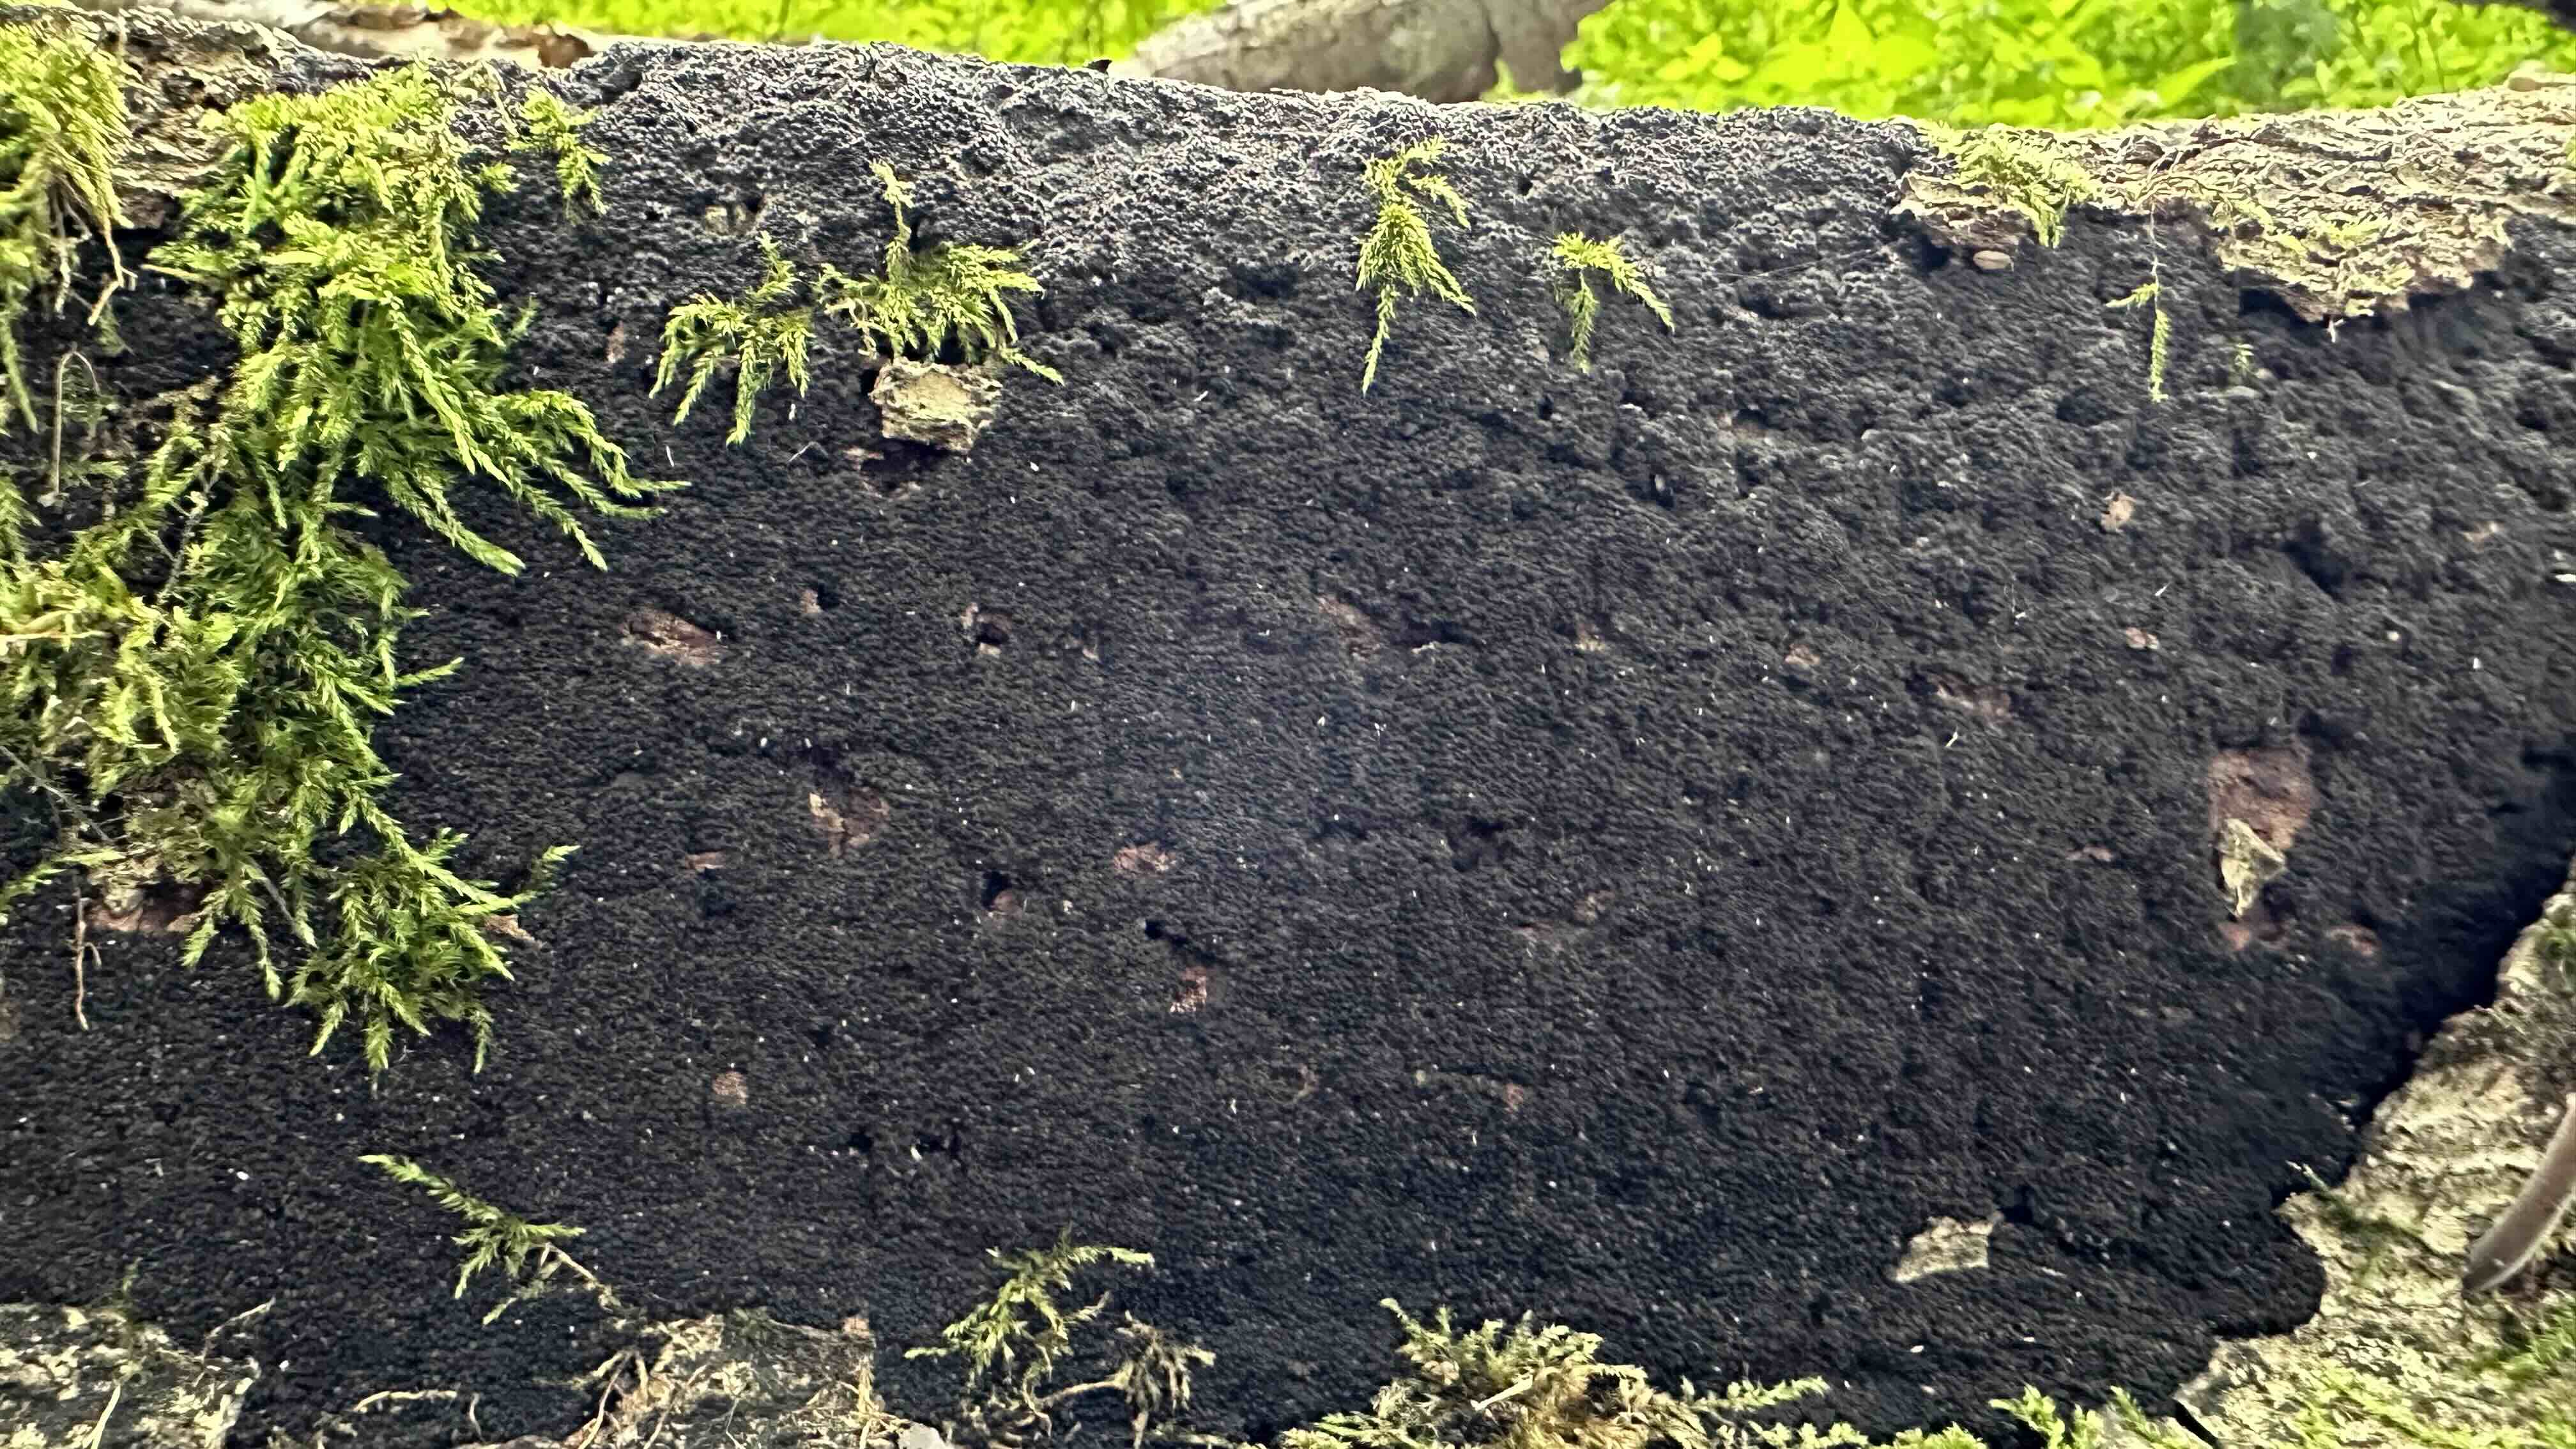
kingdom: Fungi
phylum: Ascomycota
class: Sordariomycetes
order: Xylariales
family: Diatrypaceae
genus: Eutypa
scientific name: Eutypa spinosa
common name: grov kulskorpe
